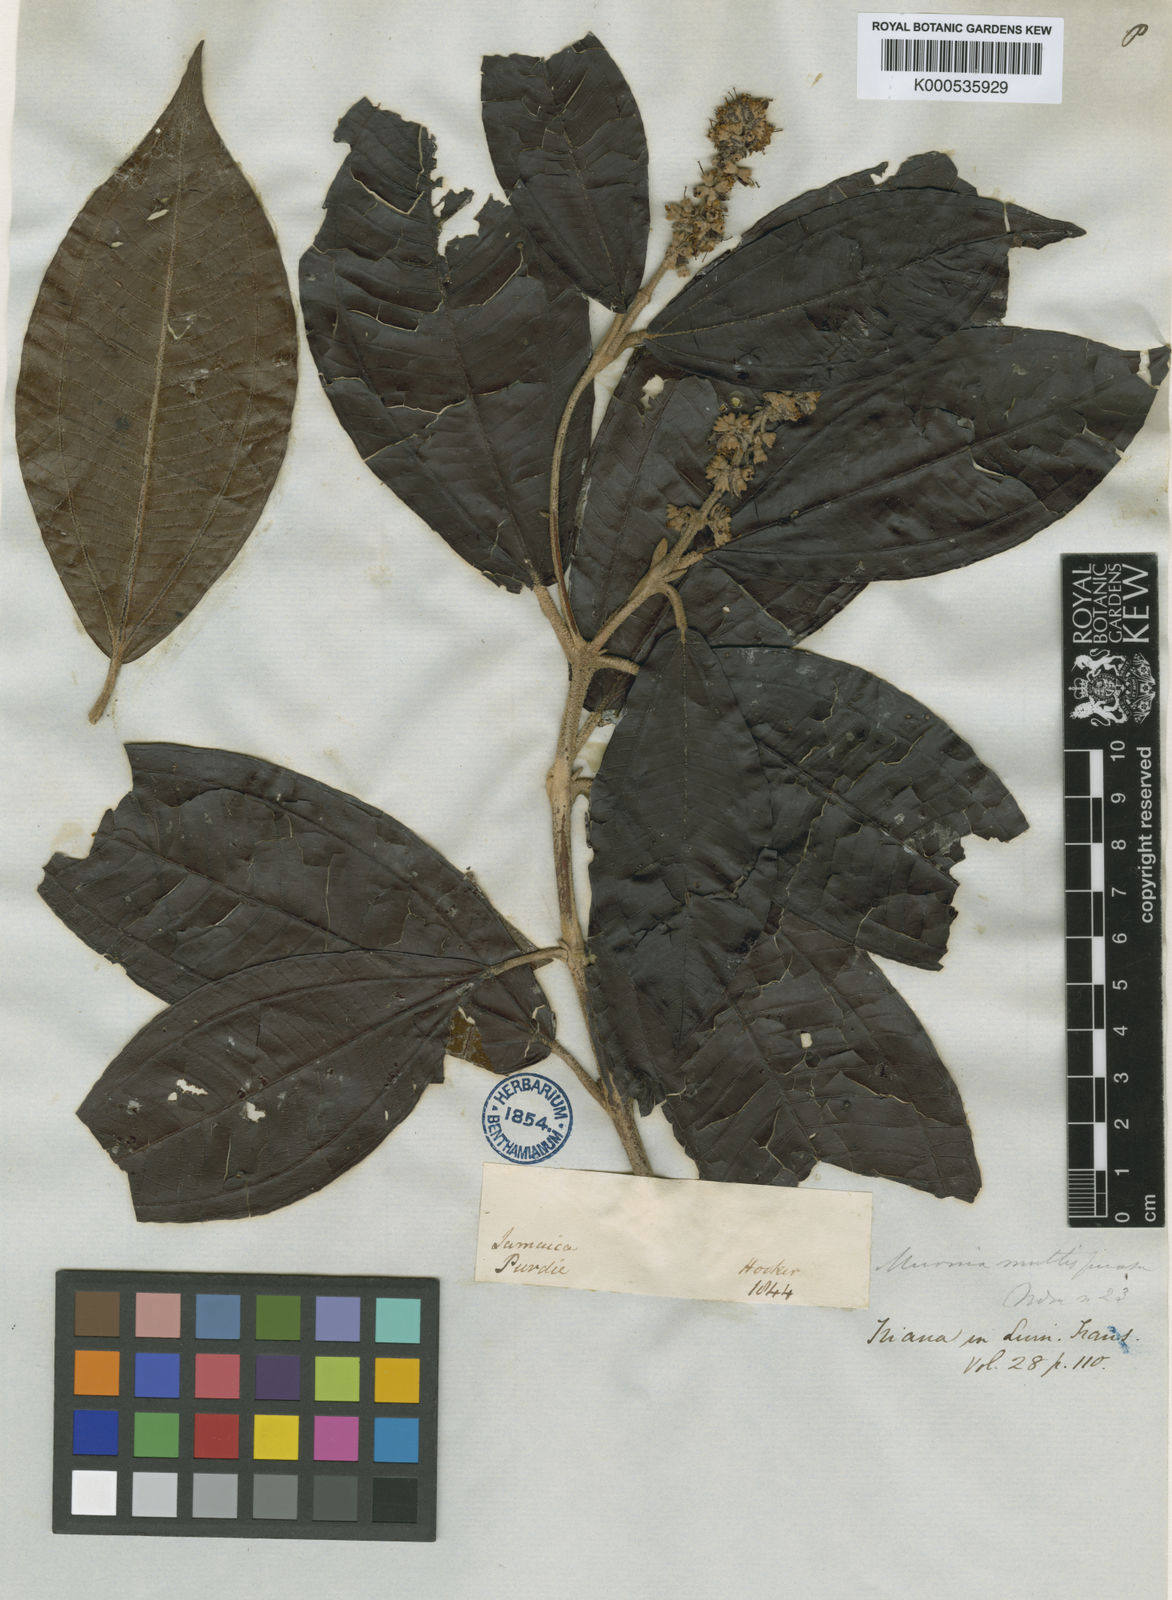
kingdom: Plantae
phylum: Tracheophyta
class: Magnoliopsida
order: Myrtales
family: Melastomataceae
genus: Miconia
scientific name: Miconia multispicata
